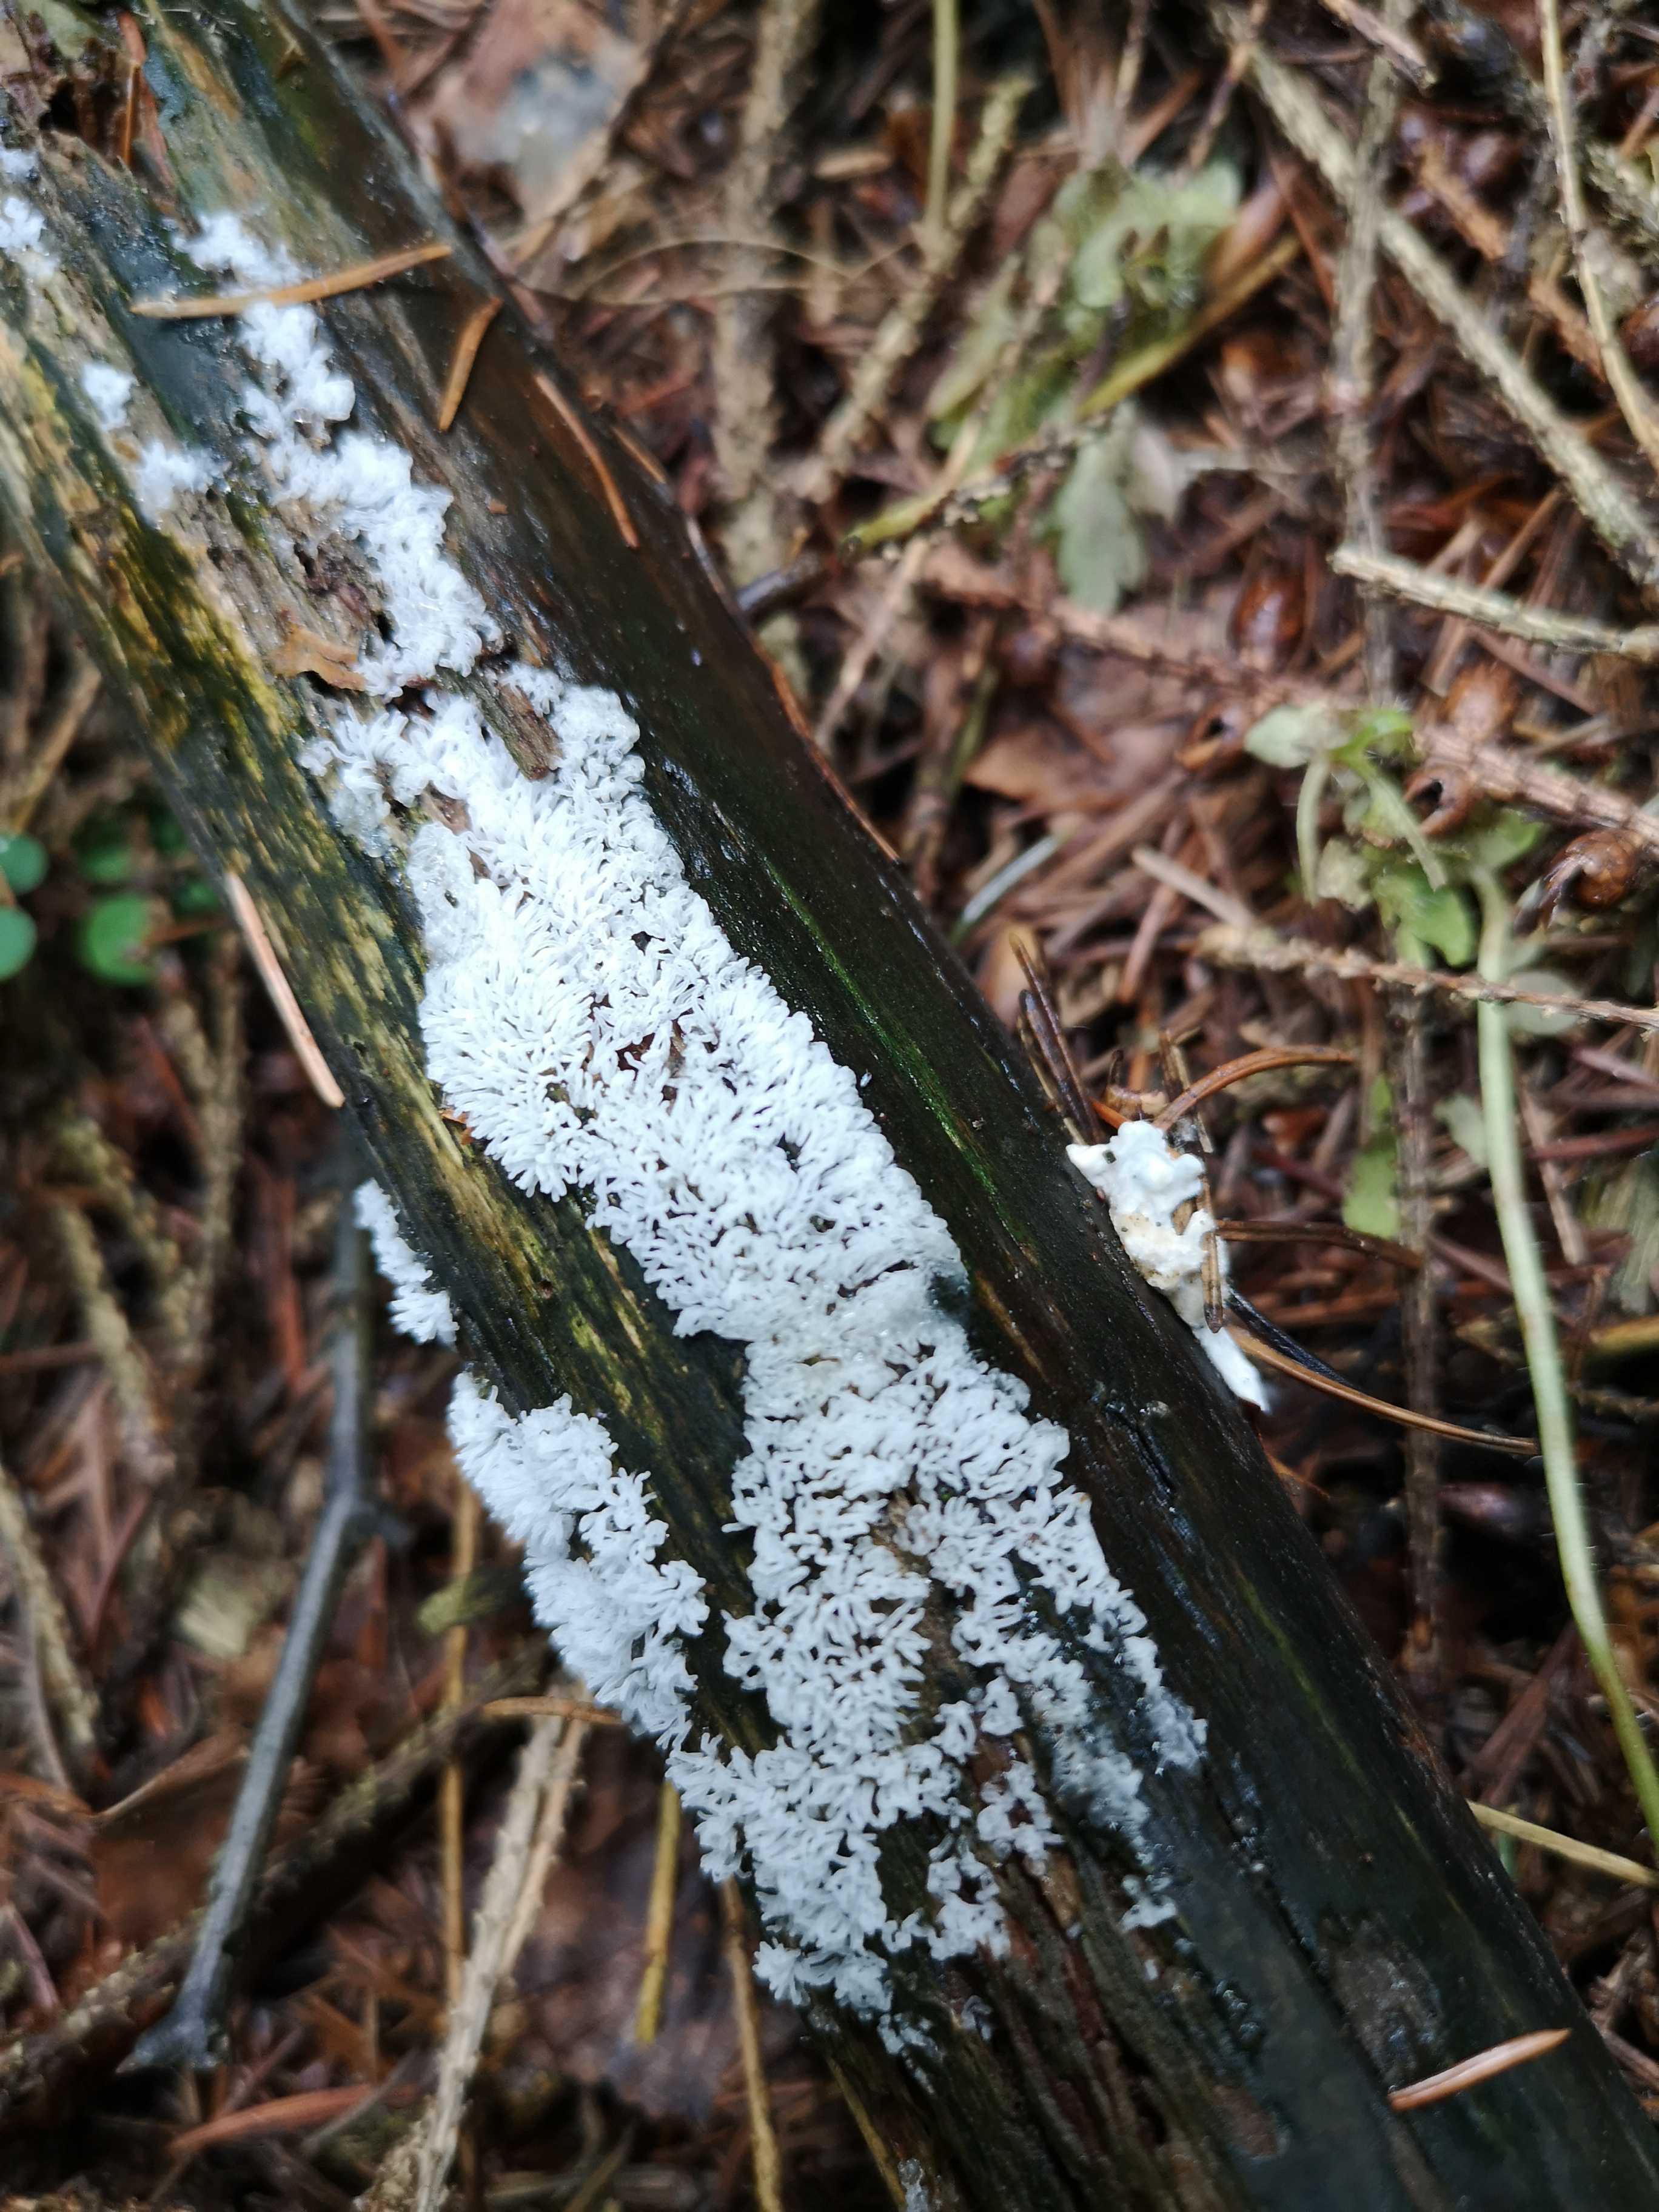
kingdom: Protozoa
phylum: Mycetozoa
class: Protosteliomycetes
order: Ceratiomyxales
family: Ceratiomyxaceae
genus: Ceratiomyxa
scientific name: Ceratiomyxa fruticulosa
